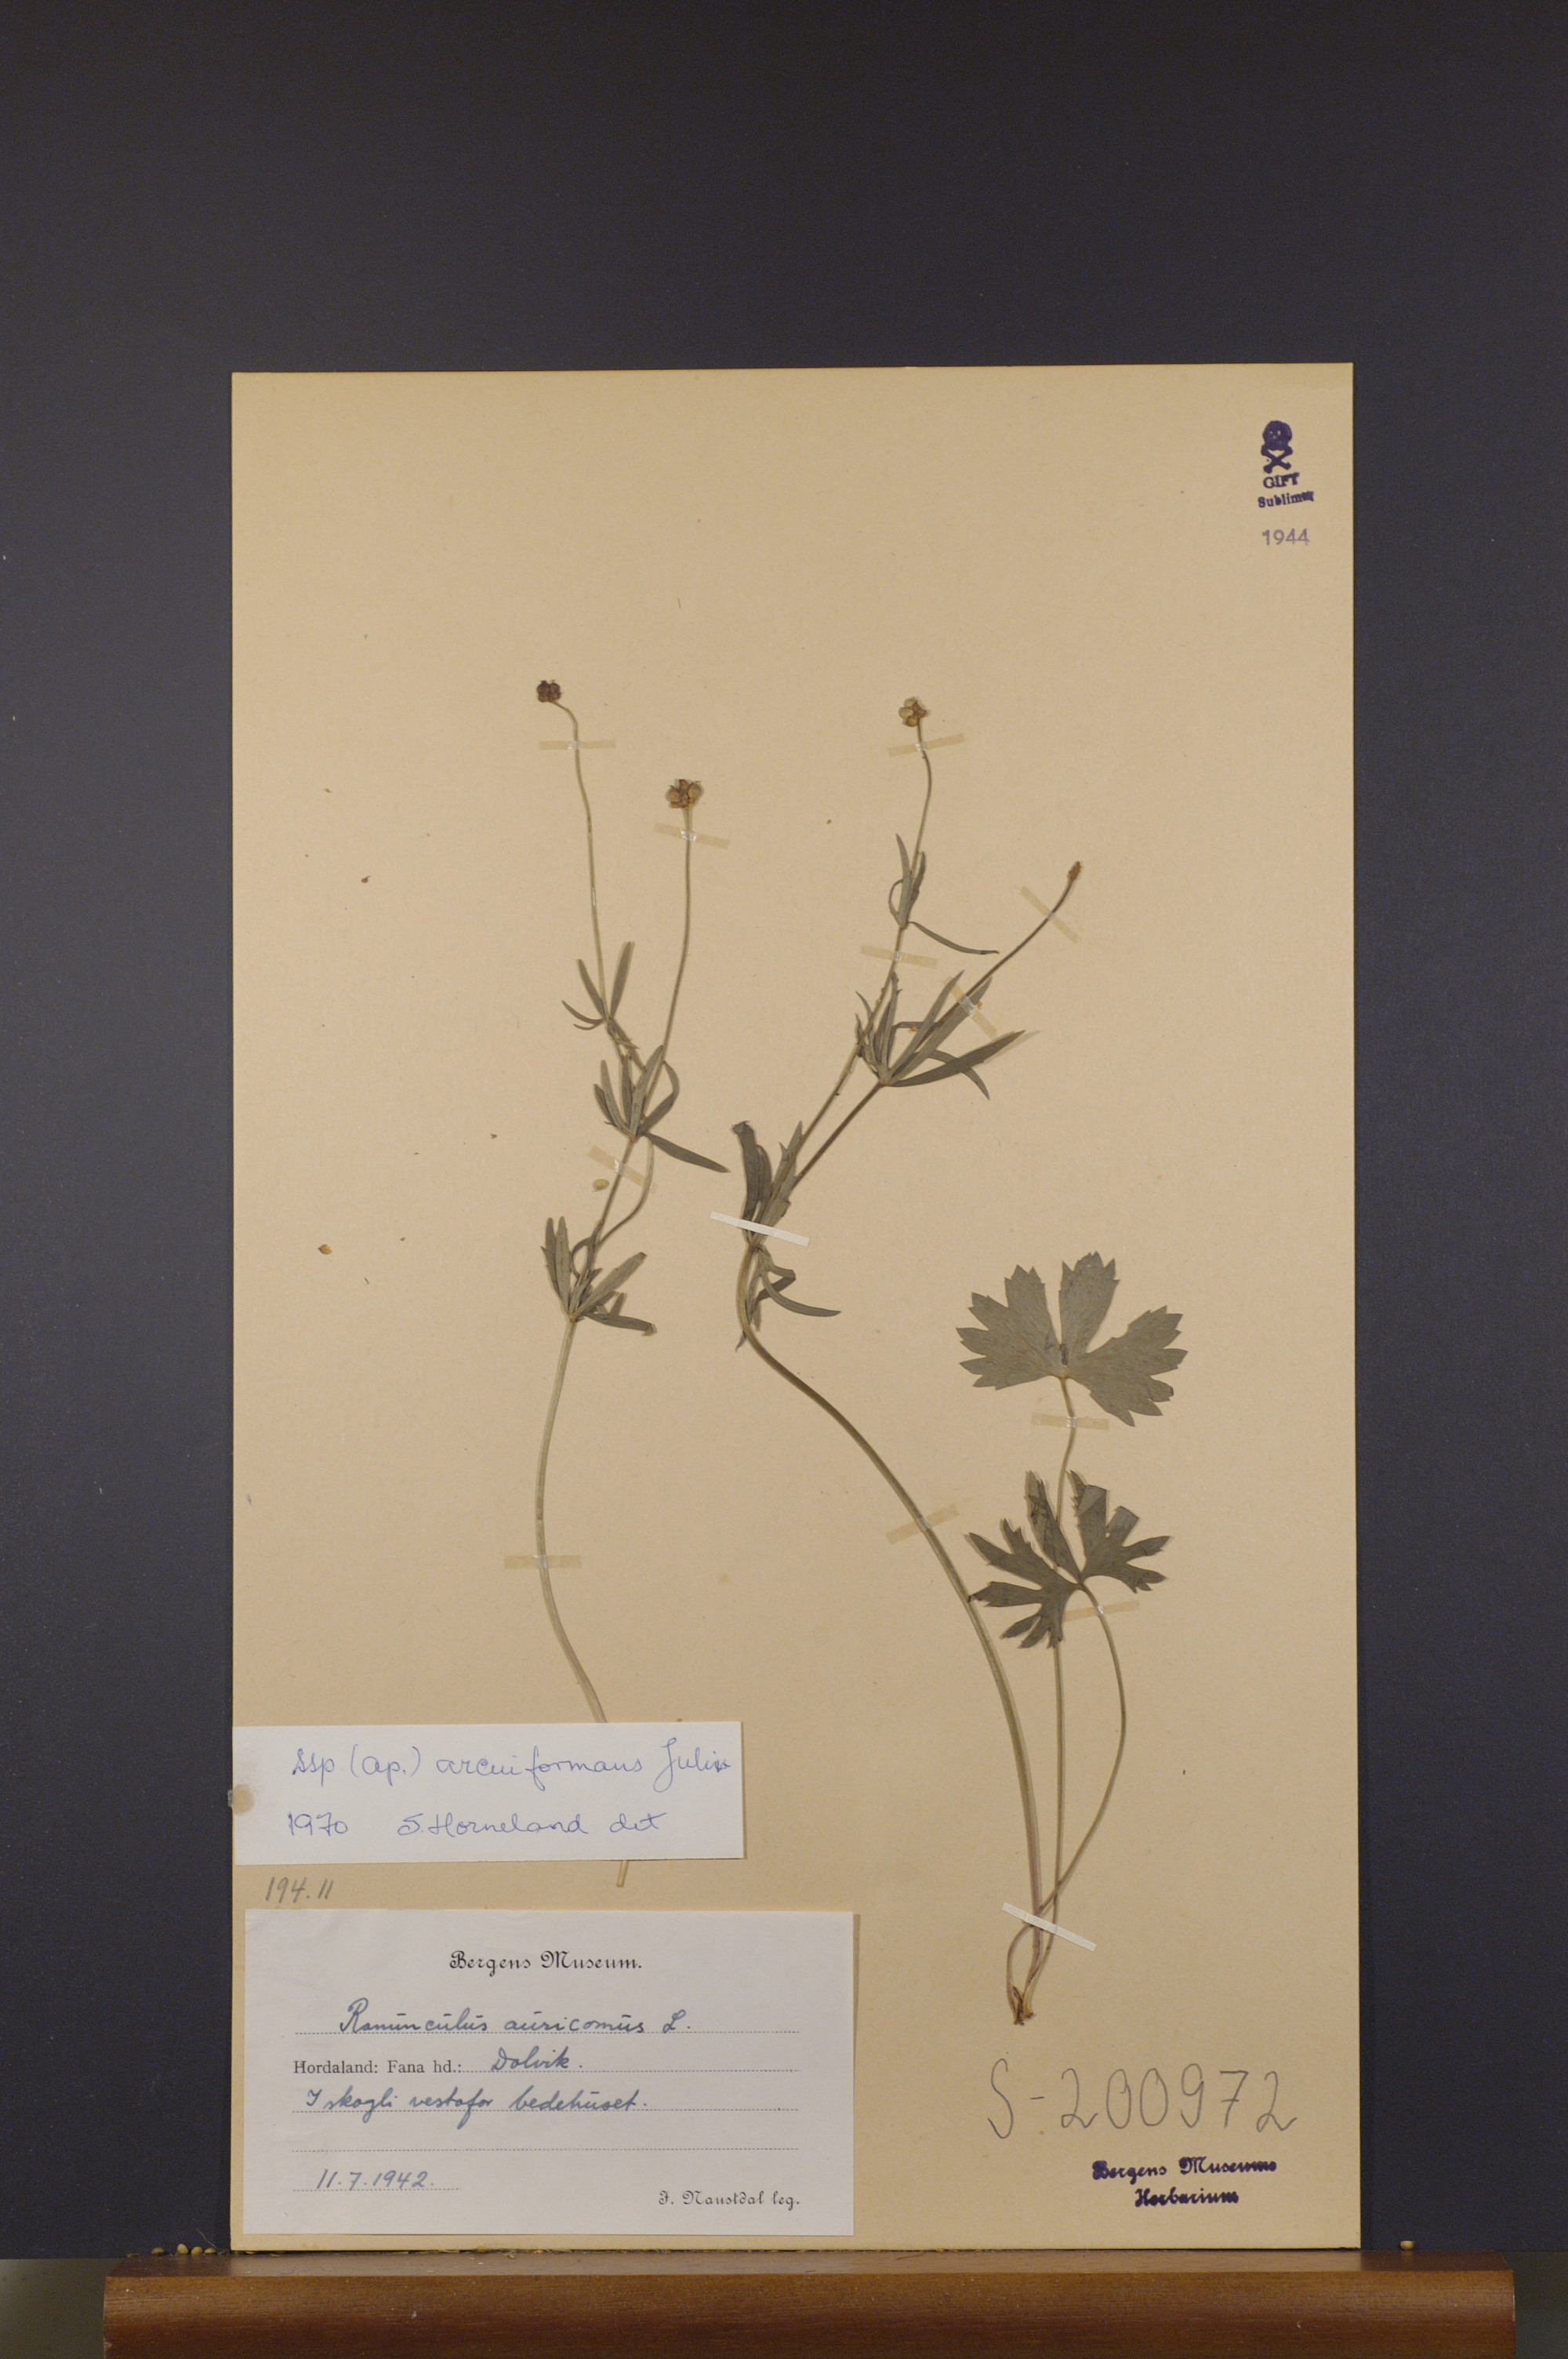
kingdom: Plantae
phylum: Tracheophyta
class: Magnoliopsida
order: Ranunculales
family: Ranunculaceae
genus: Ranunculus
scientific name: Ranunculus arcuiformans
